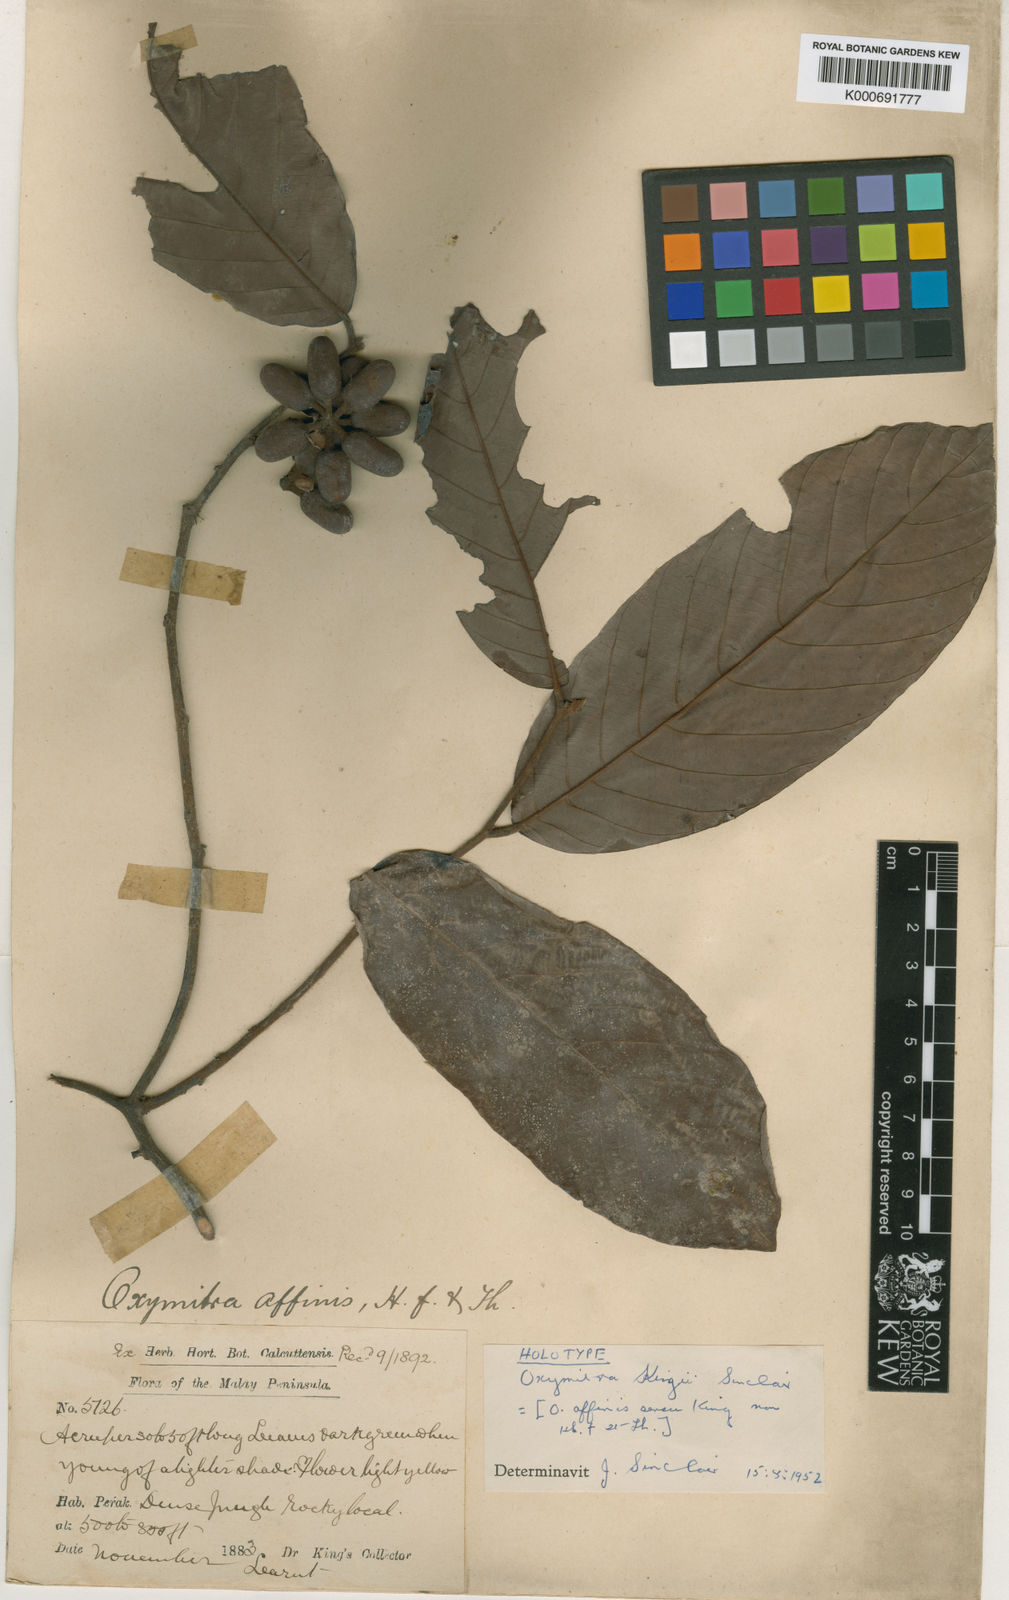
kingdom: Plantae
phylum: Tracheophyta
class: Magnoliopsida
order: Magnoliales
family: Annonaceae
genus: Friesodielsia
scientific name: Friesodielsia kingii
